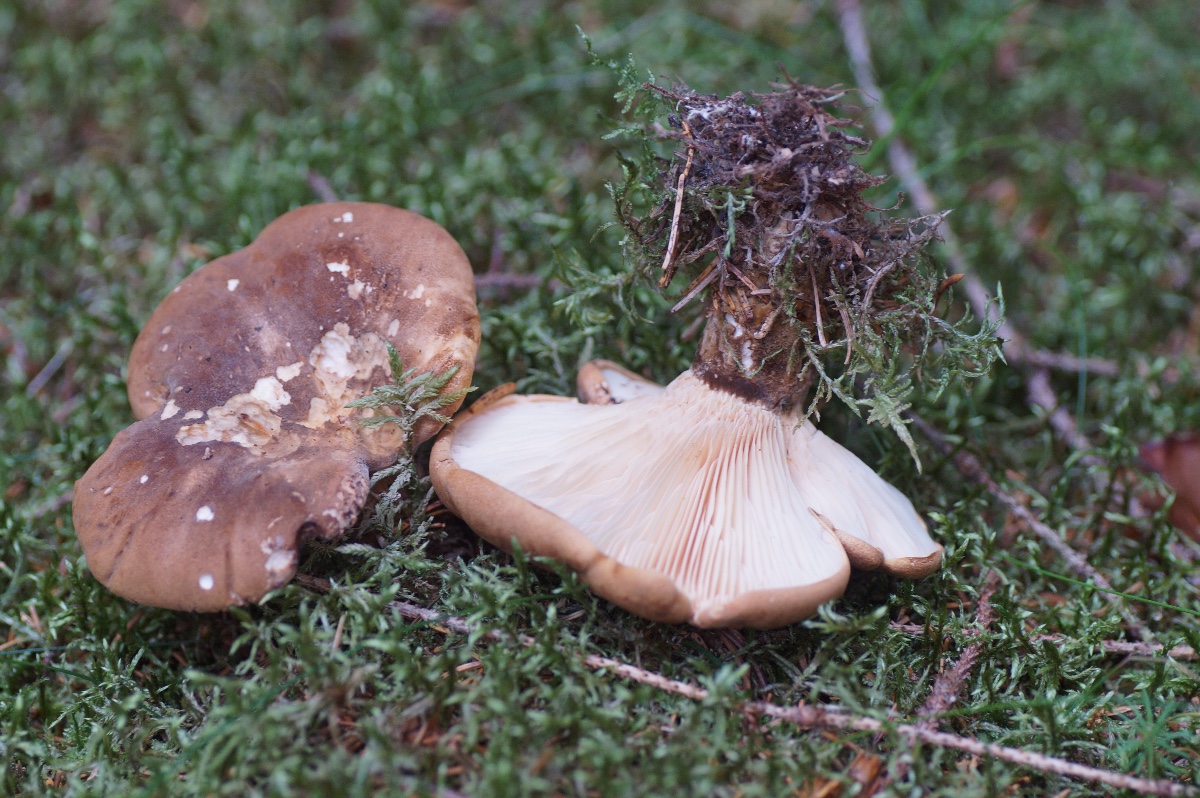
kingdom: Fungi
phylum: Basidiomycota
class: Agaricomycetes
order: Boletales
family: Tapinellaceae
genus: Tapinella
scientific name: Tapinella atrotomentosa
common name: sortfiltet viftesvamp
